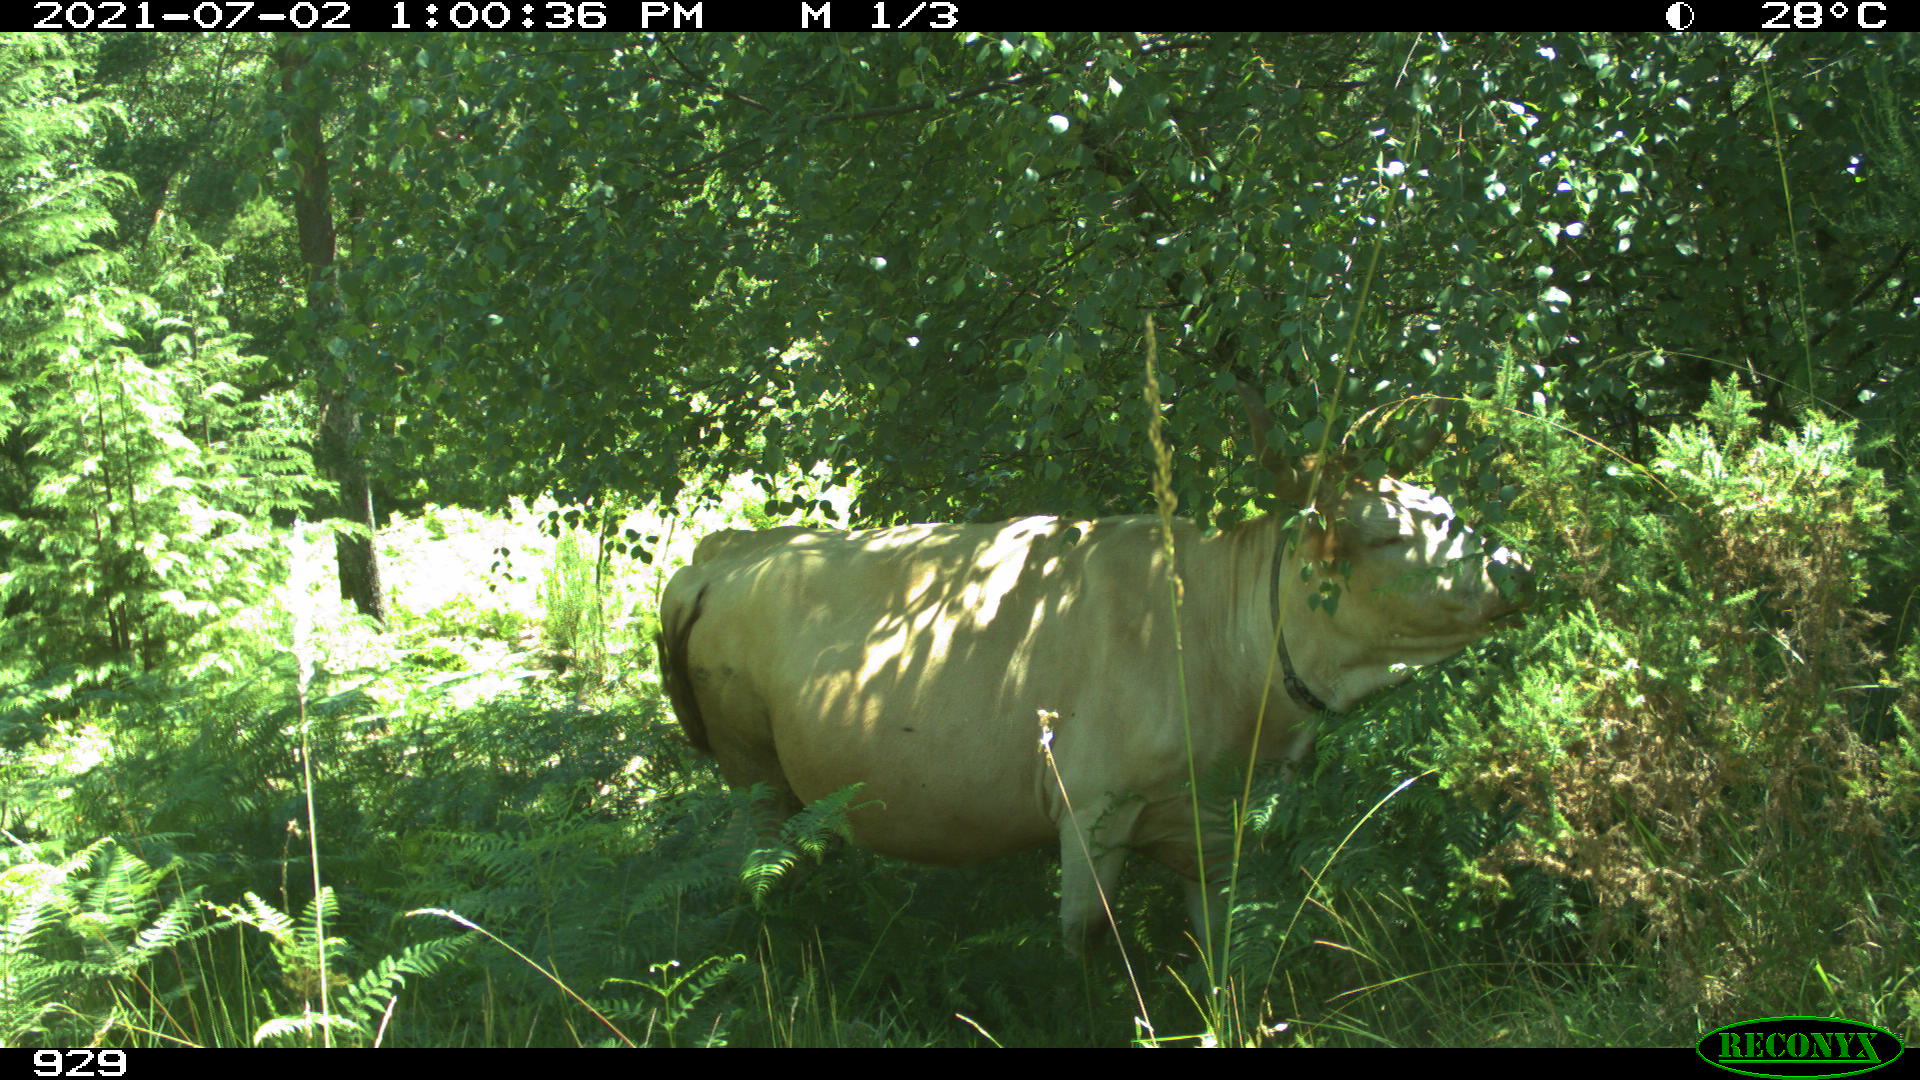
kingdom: Animalia
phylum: Chordata
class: Mammalia
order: Artiodactyla
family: Bovidae
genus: Bos
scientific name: Bos taurus
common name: Domesticated cattle
